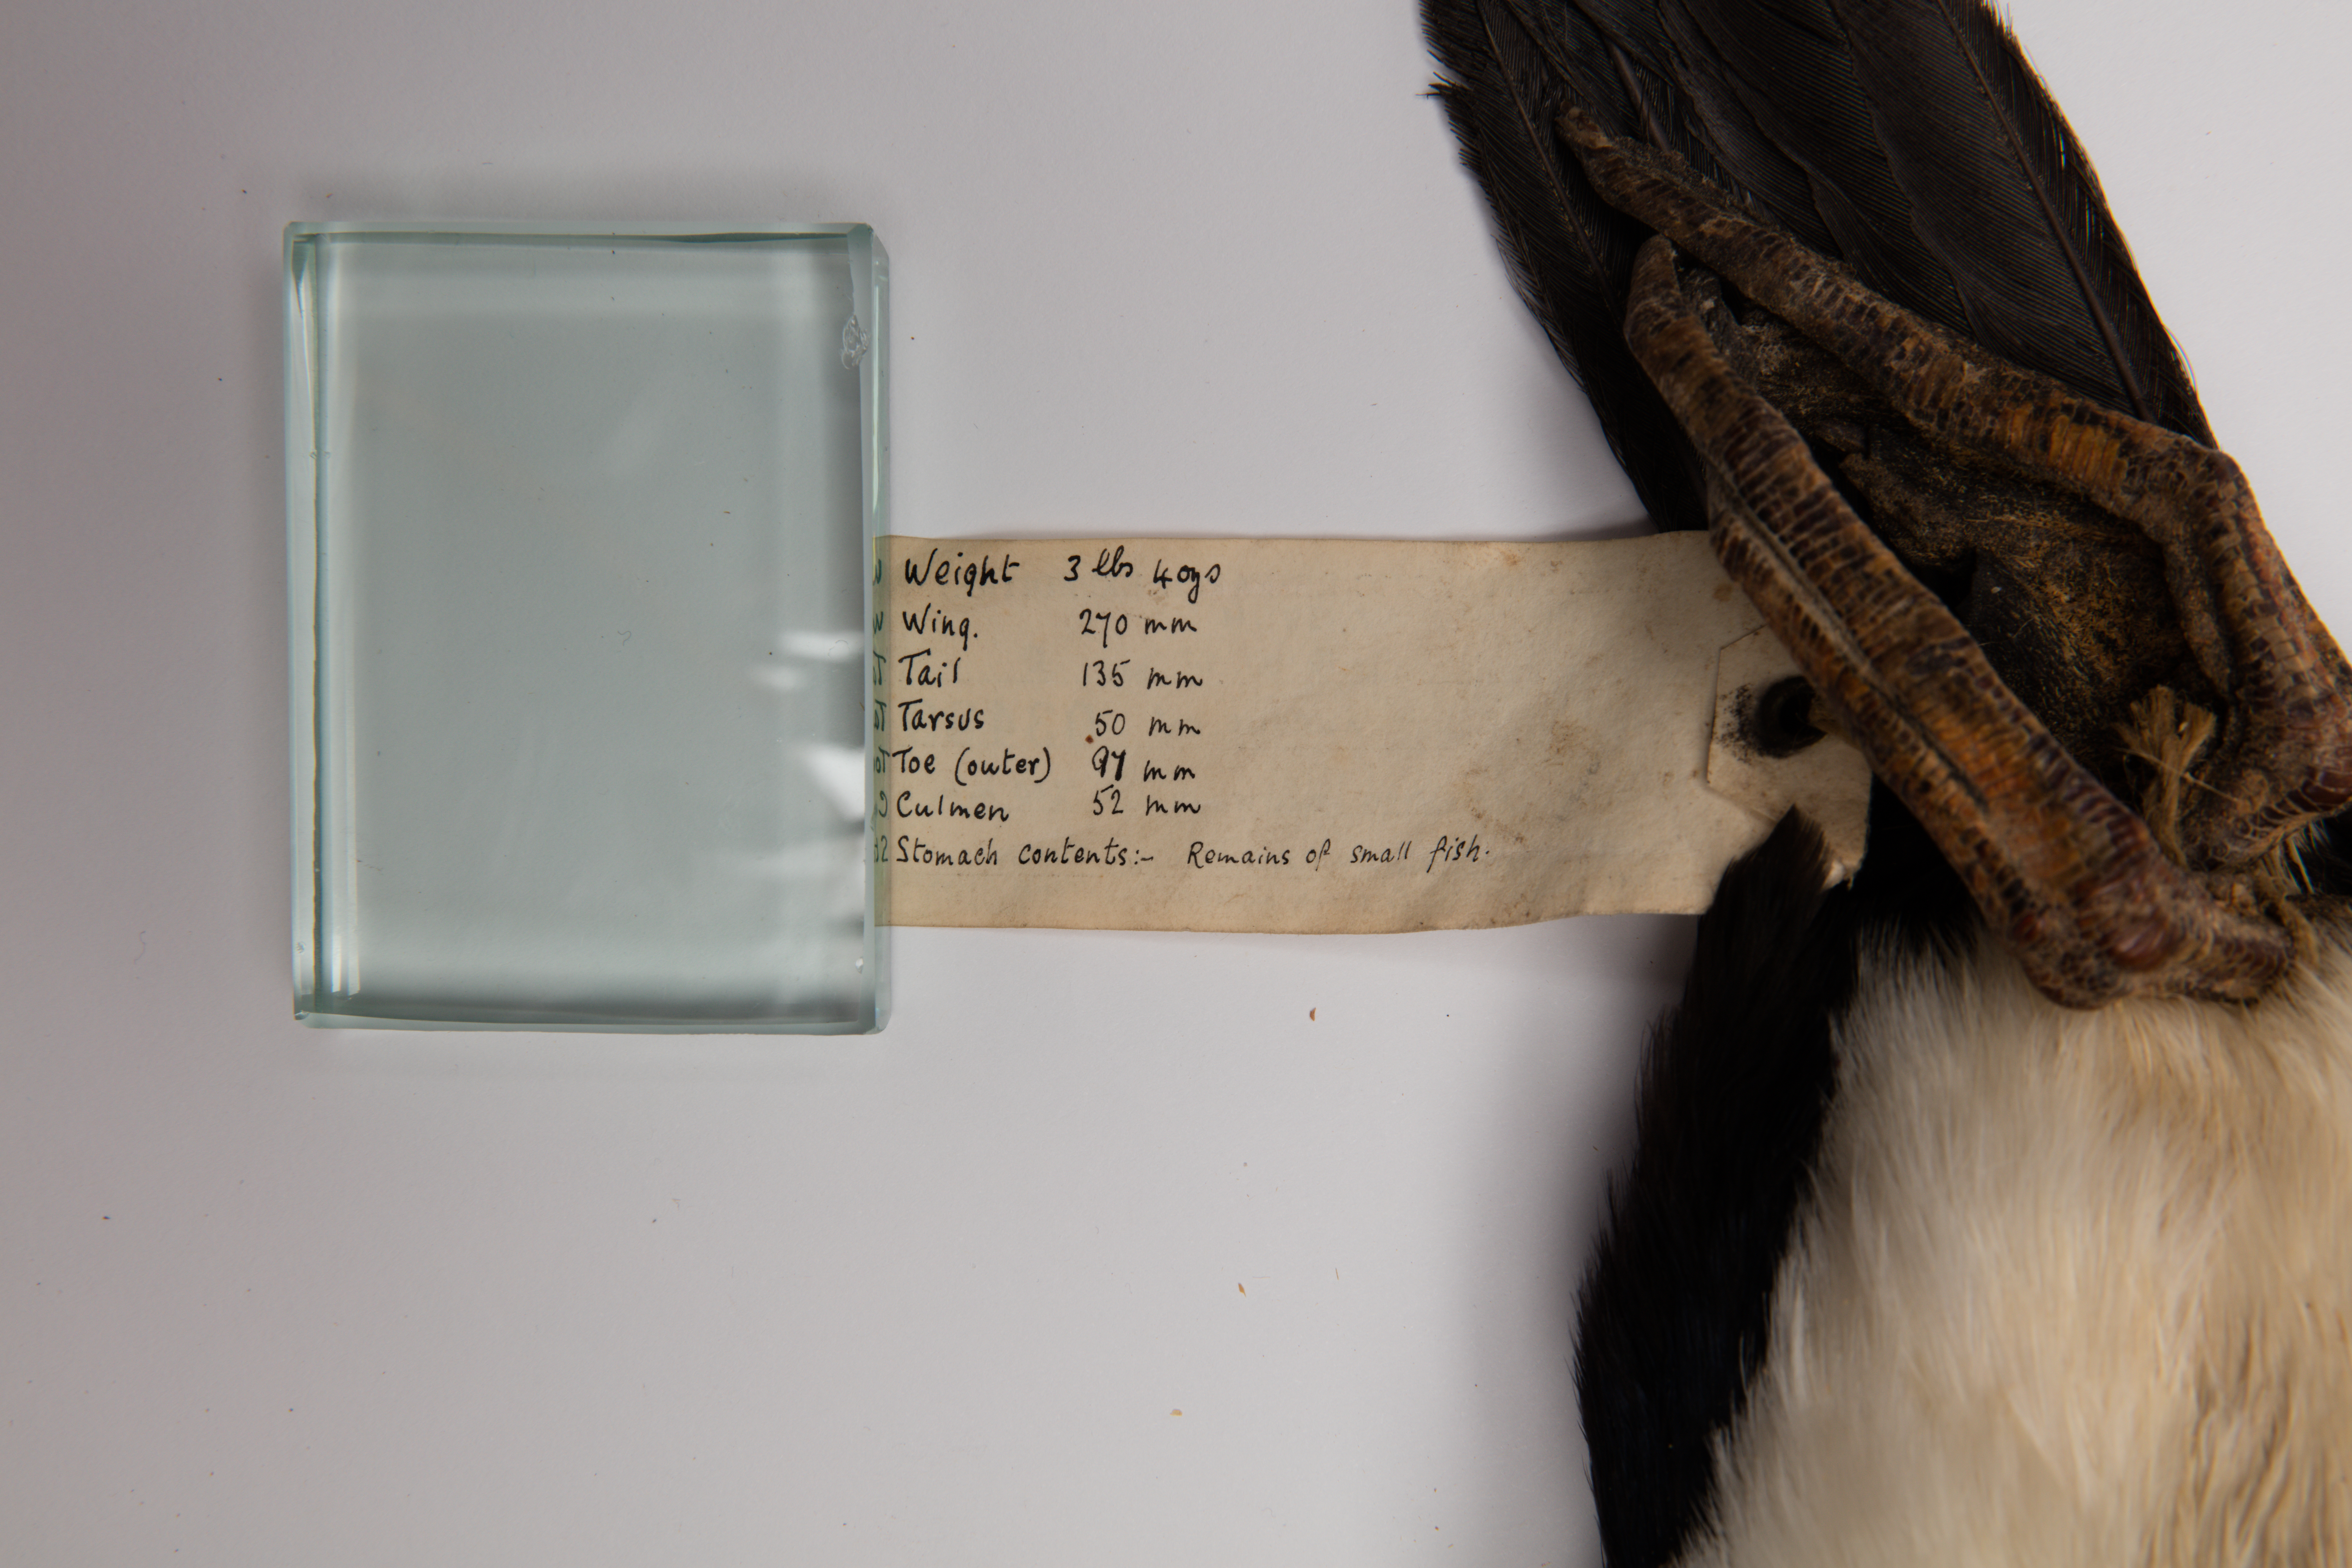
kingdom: Animalia
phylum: Chordata
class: Aves
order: Suliformes
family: Phalacrocoracidae
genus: Leucocarbo
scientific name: Leucocarbo verrucosus
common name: Kerguelen shag
